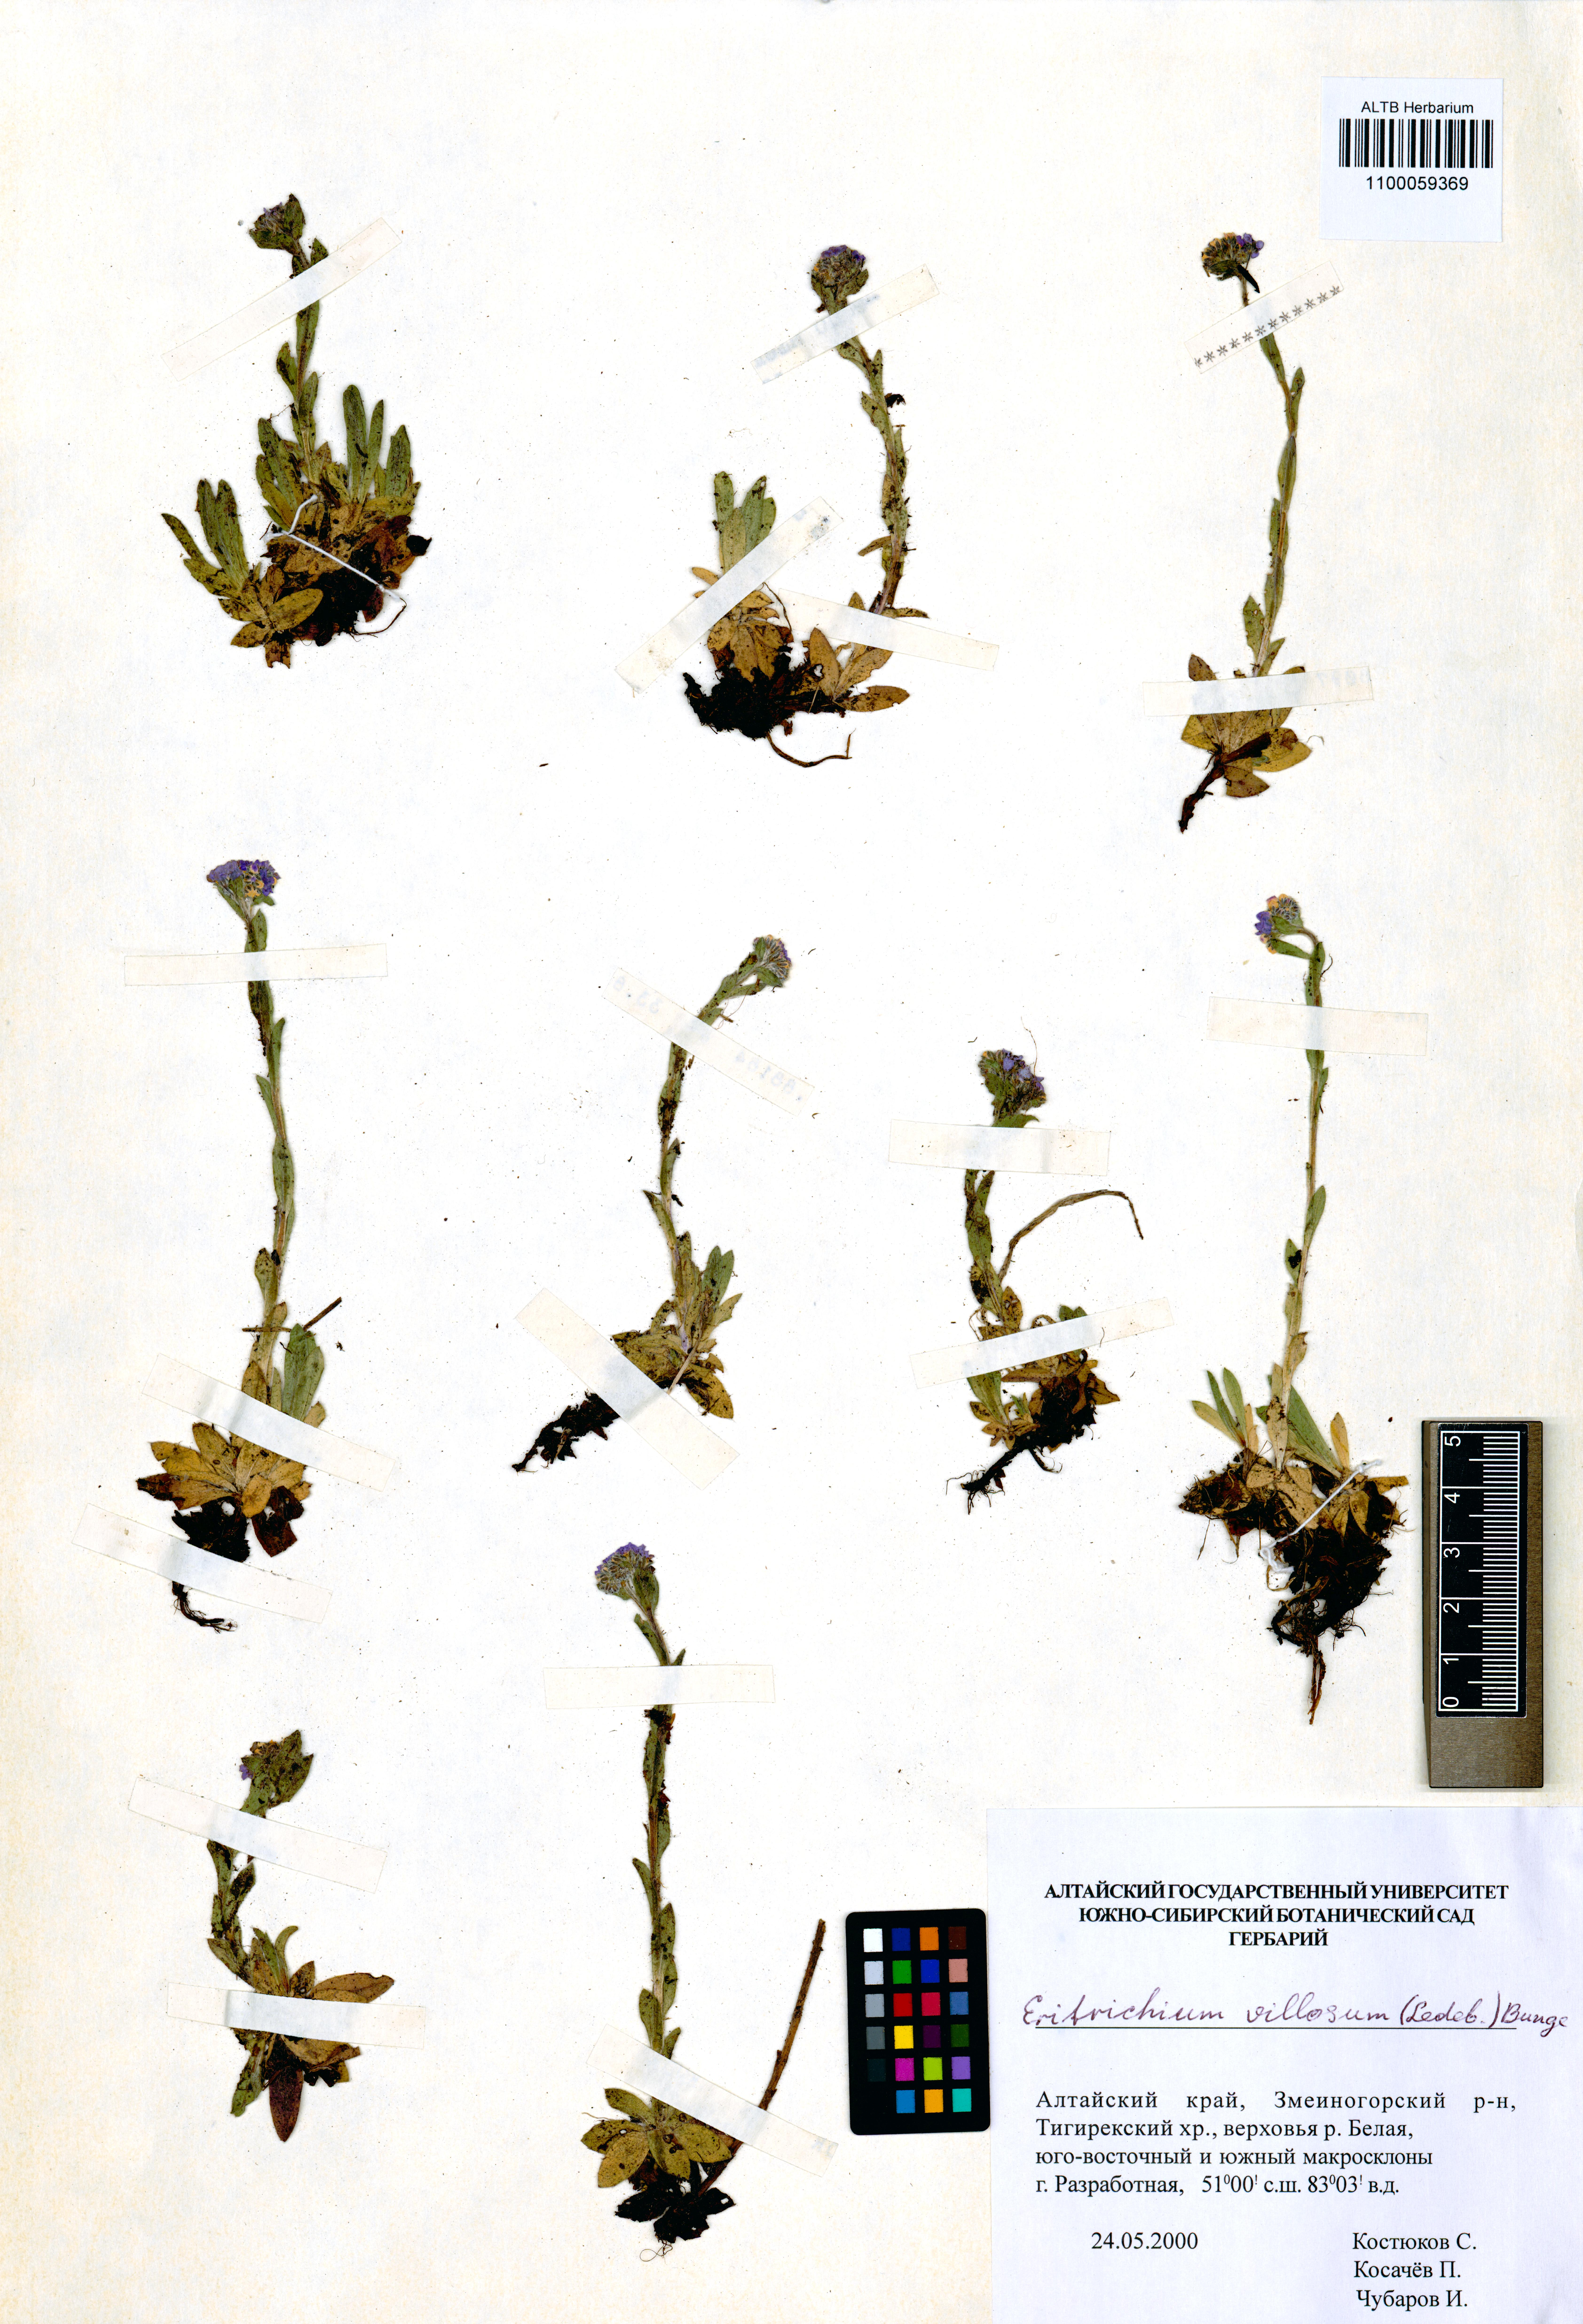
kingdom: Plantae
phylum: Tracheophyta
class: Magnoliopsida
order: Boraginales
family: Boraginaceae
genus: Eritrichium
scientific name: Eritrichium villosum
